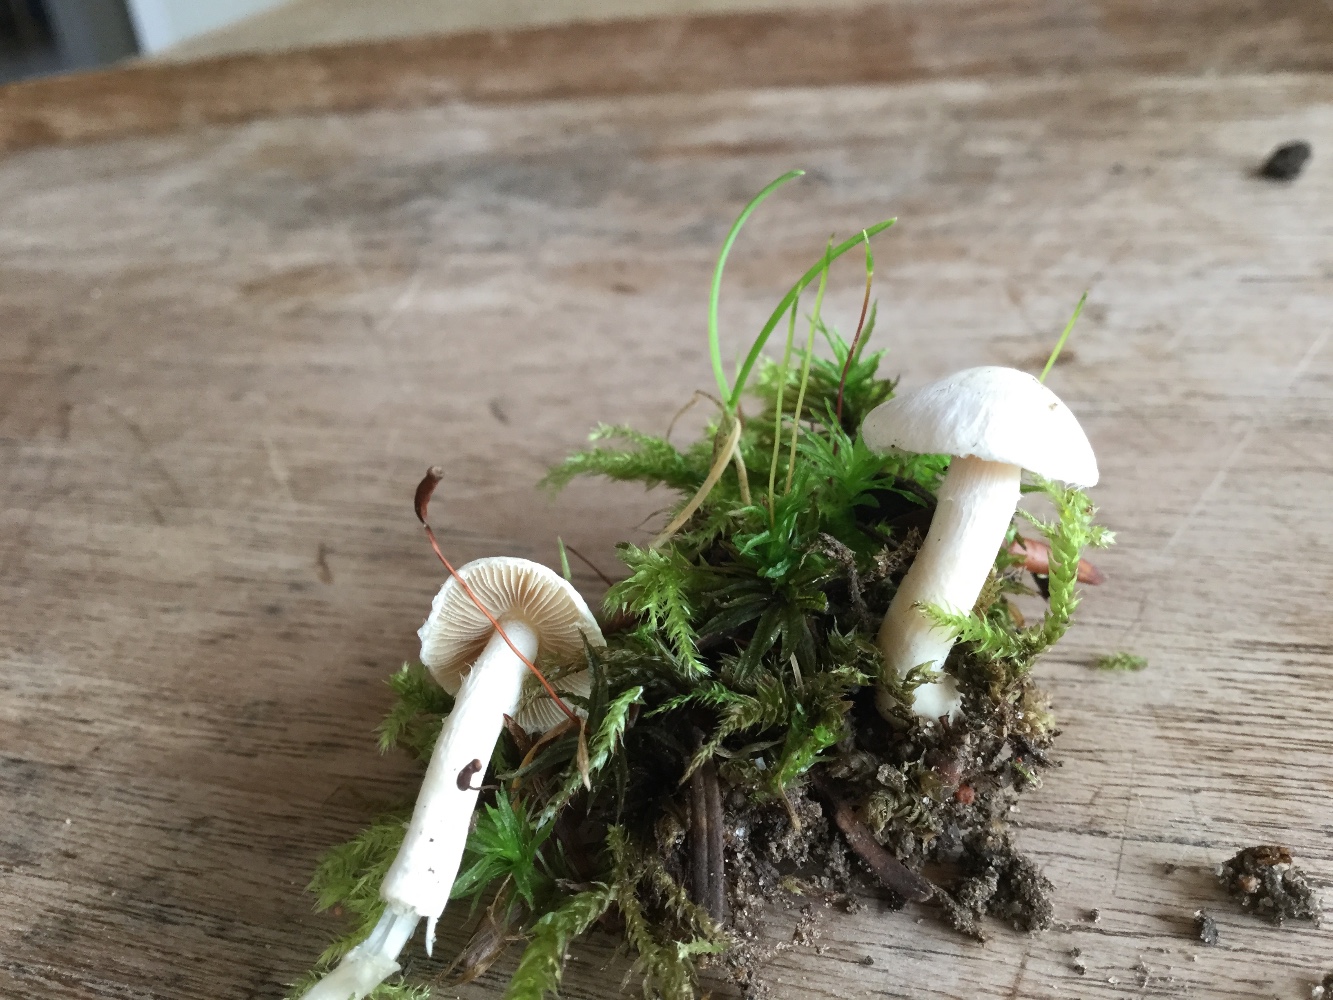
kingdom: Fungi
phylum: Basidiomycota
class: Agaricomycetes
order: Agaricales
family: Inocybaceae
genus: Inocybe
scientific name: Inocybe
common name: almindelig trævlhat
